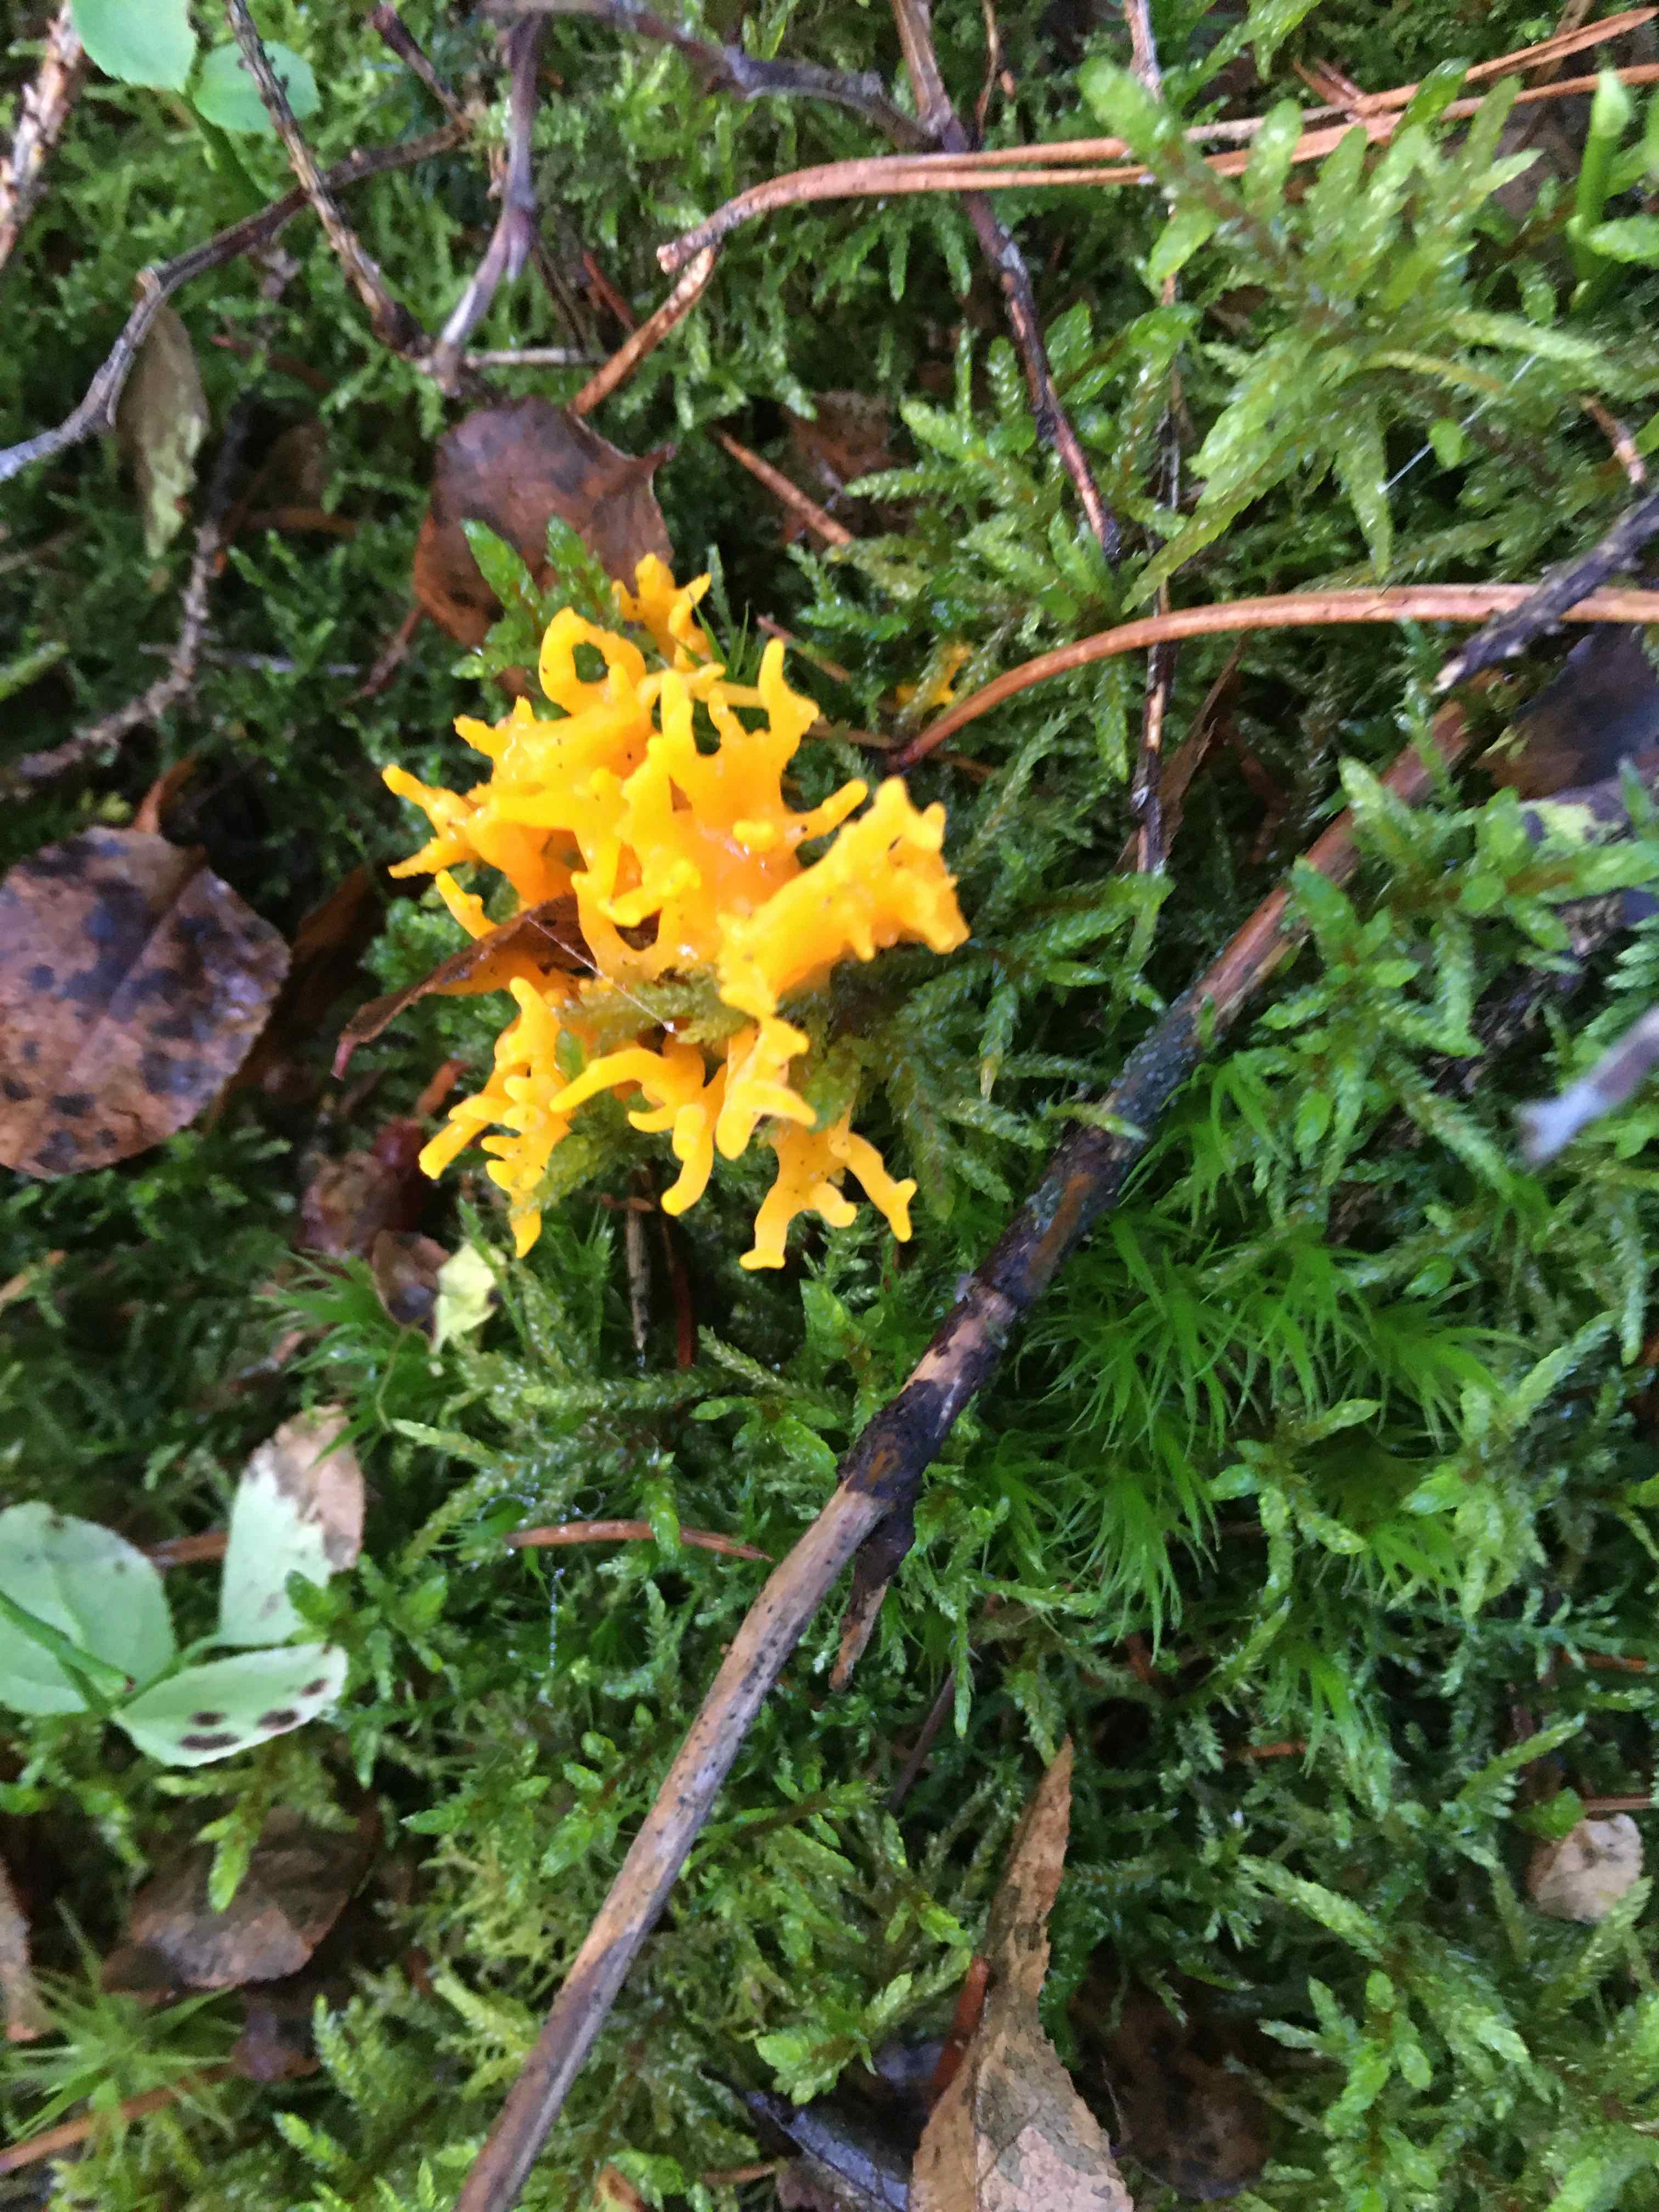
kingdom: Fungi
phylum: Basidiomycota
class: Dacrymycetes
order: Dacrymycetales
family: Dacrymycetaceae
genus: Calocera
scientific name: Calocera viscosa
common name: almindelig guldgaffel
